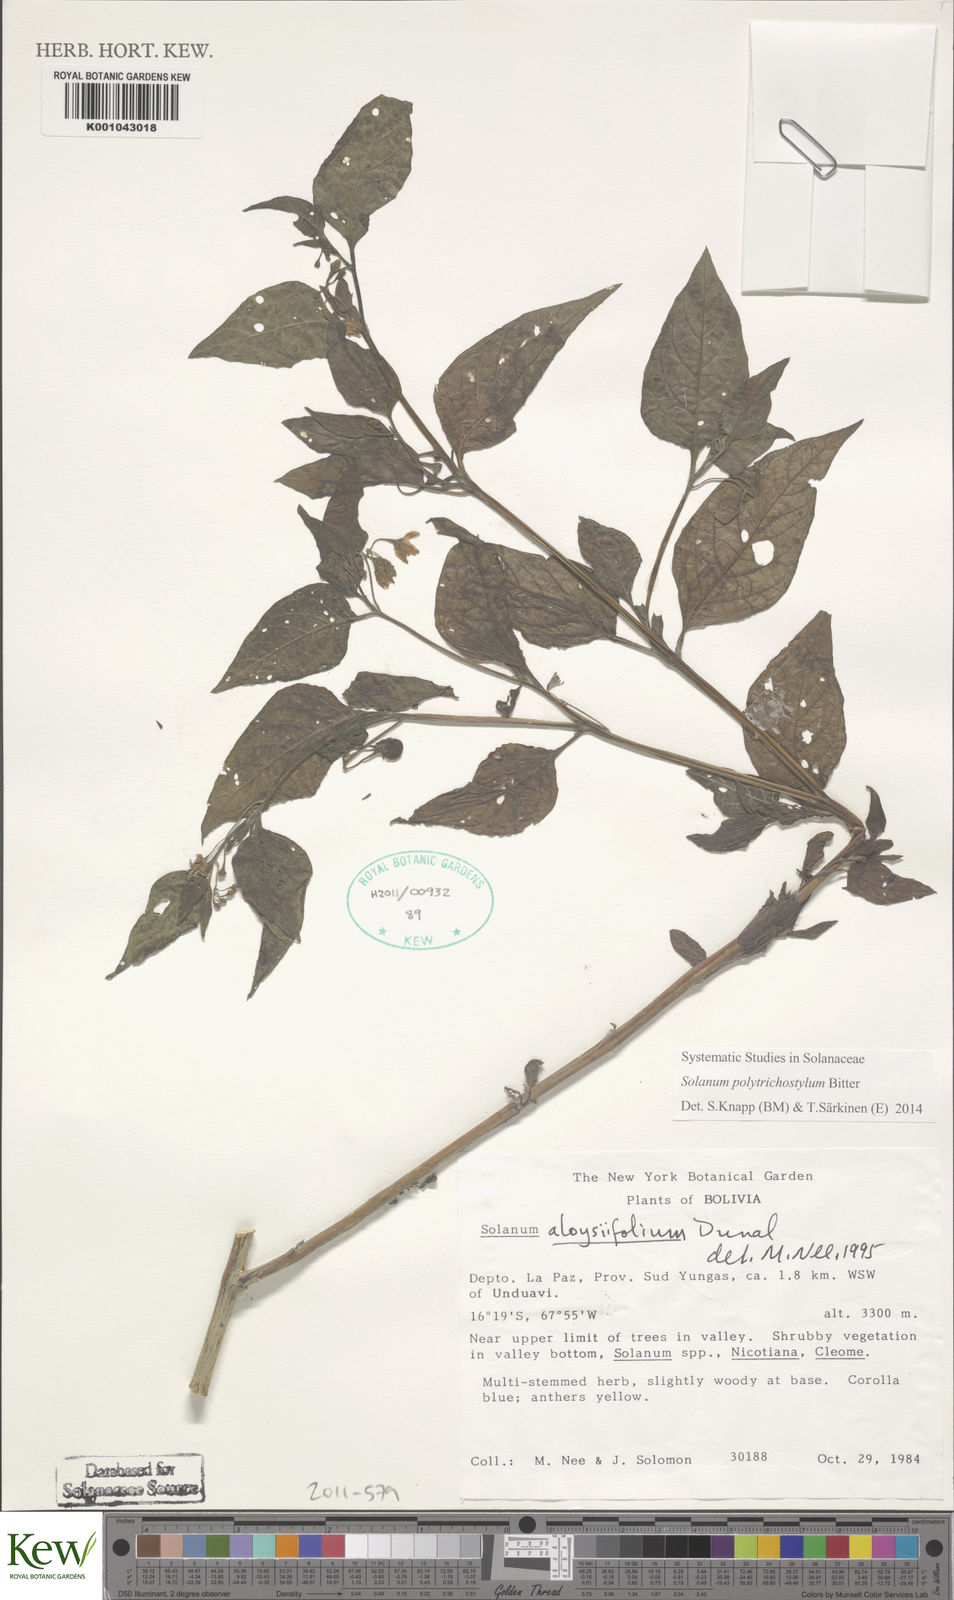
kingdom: Plantae
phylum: Tracheophyta
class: Magnoliopsida
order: Solanales
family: Solanaceae
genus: Solanum
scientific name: Solanum
